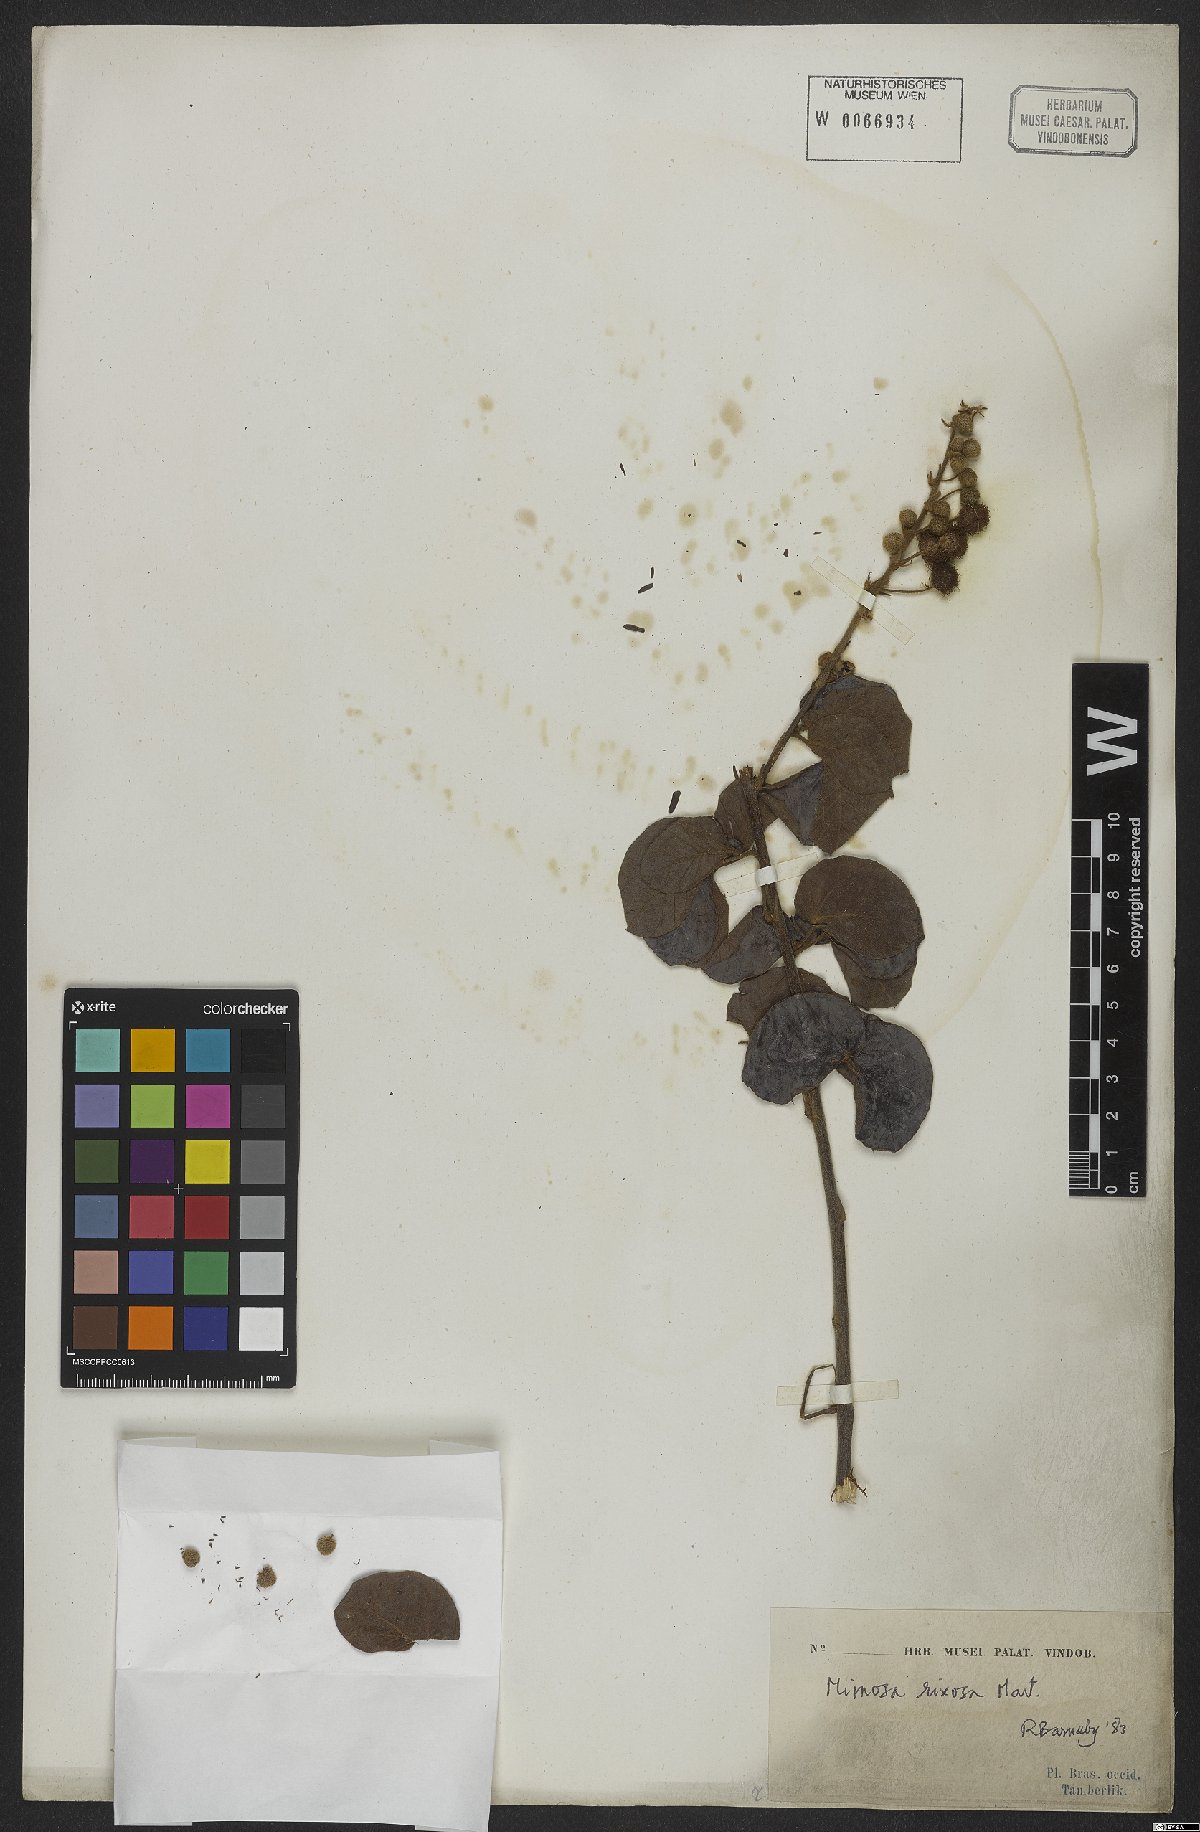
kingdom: Plantae
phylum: Tracheophyta
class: Magnoliopsida
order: Fabales
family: Fabaceae
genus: Mimosa
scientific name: Mimosa debilis
